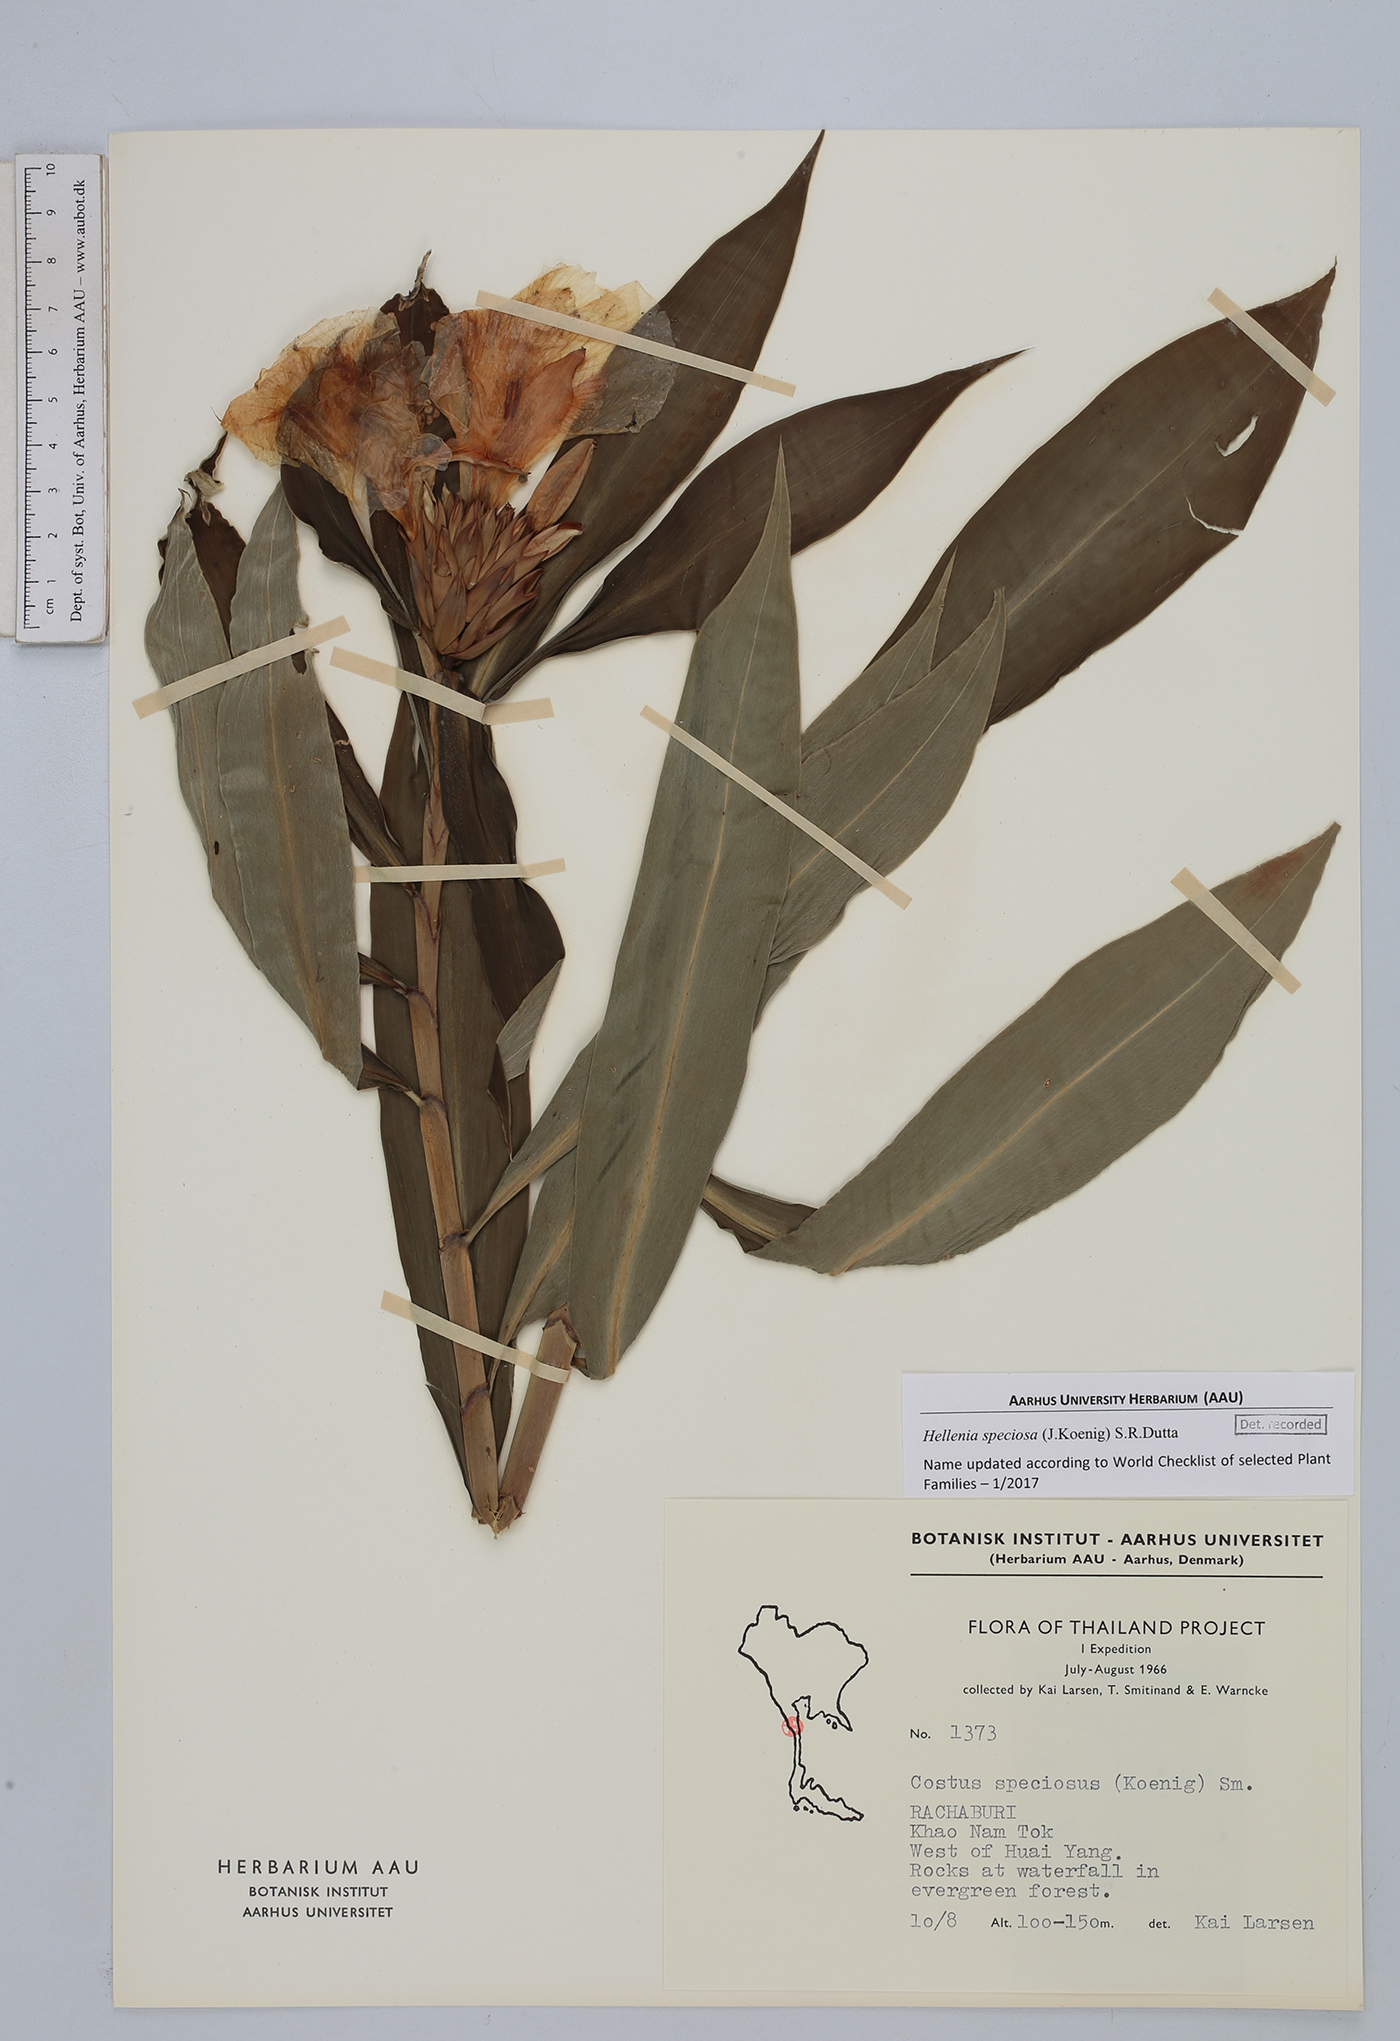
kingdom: Plantae
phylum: Tracheophyta
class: Liliopsida
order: Zingiberales
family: Costaceae
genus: Hellenia
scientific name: Hellenia speciosa
